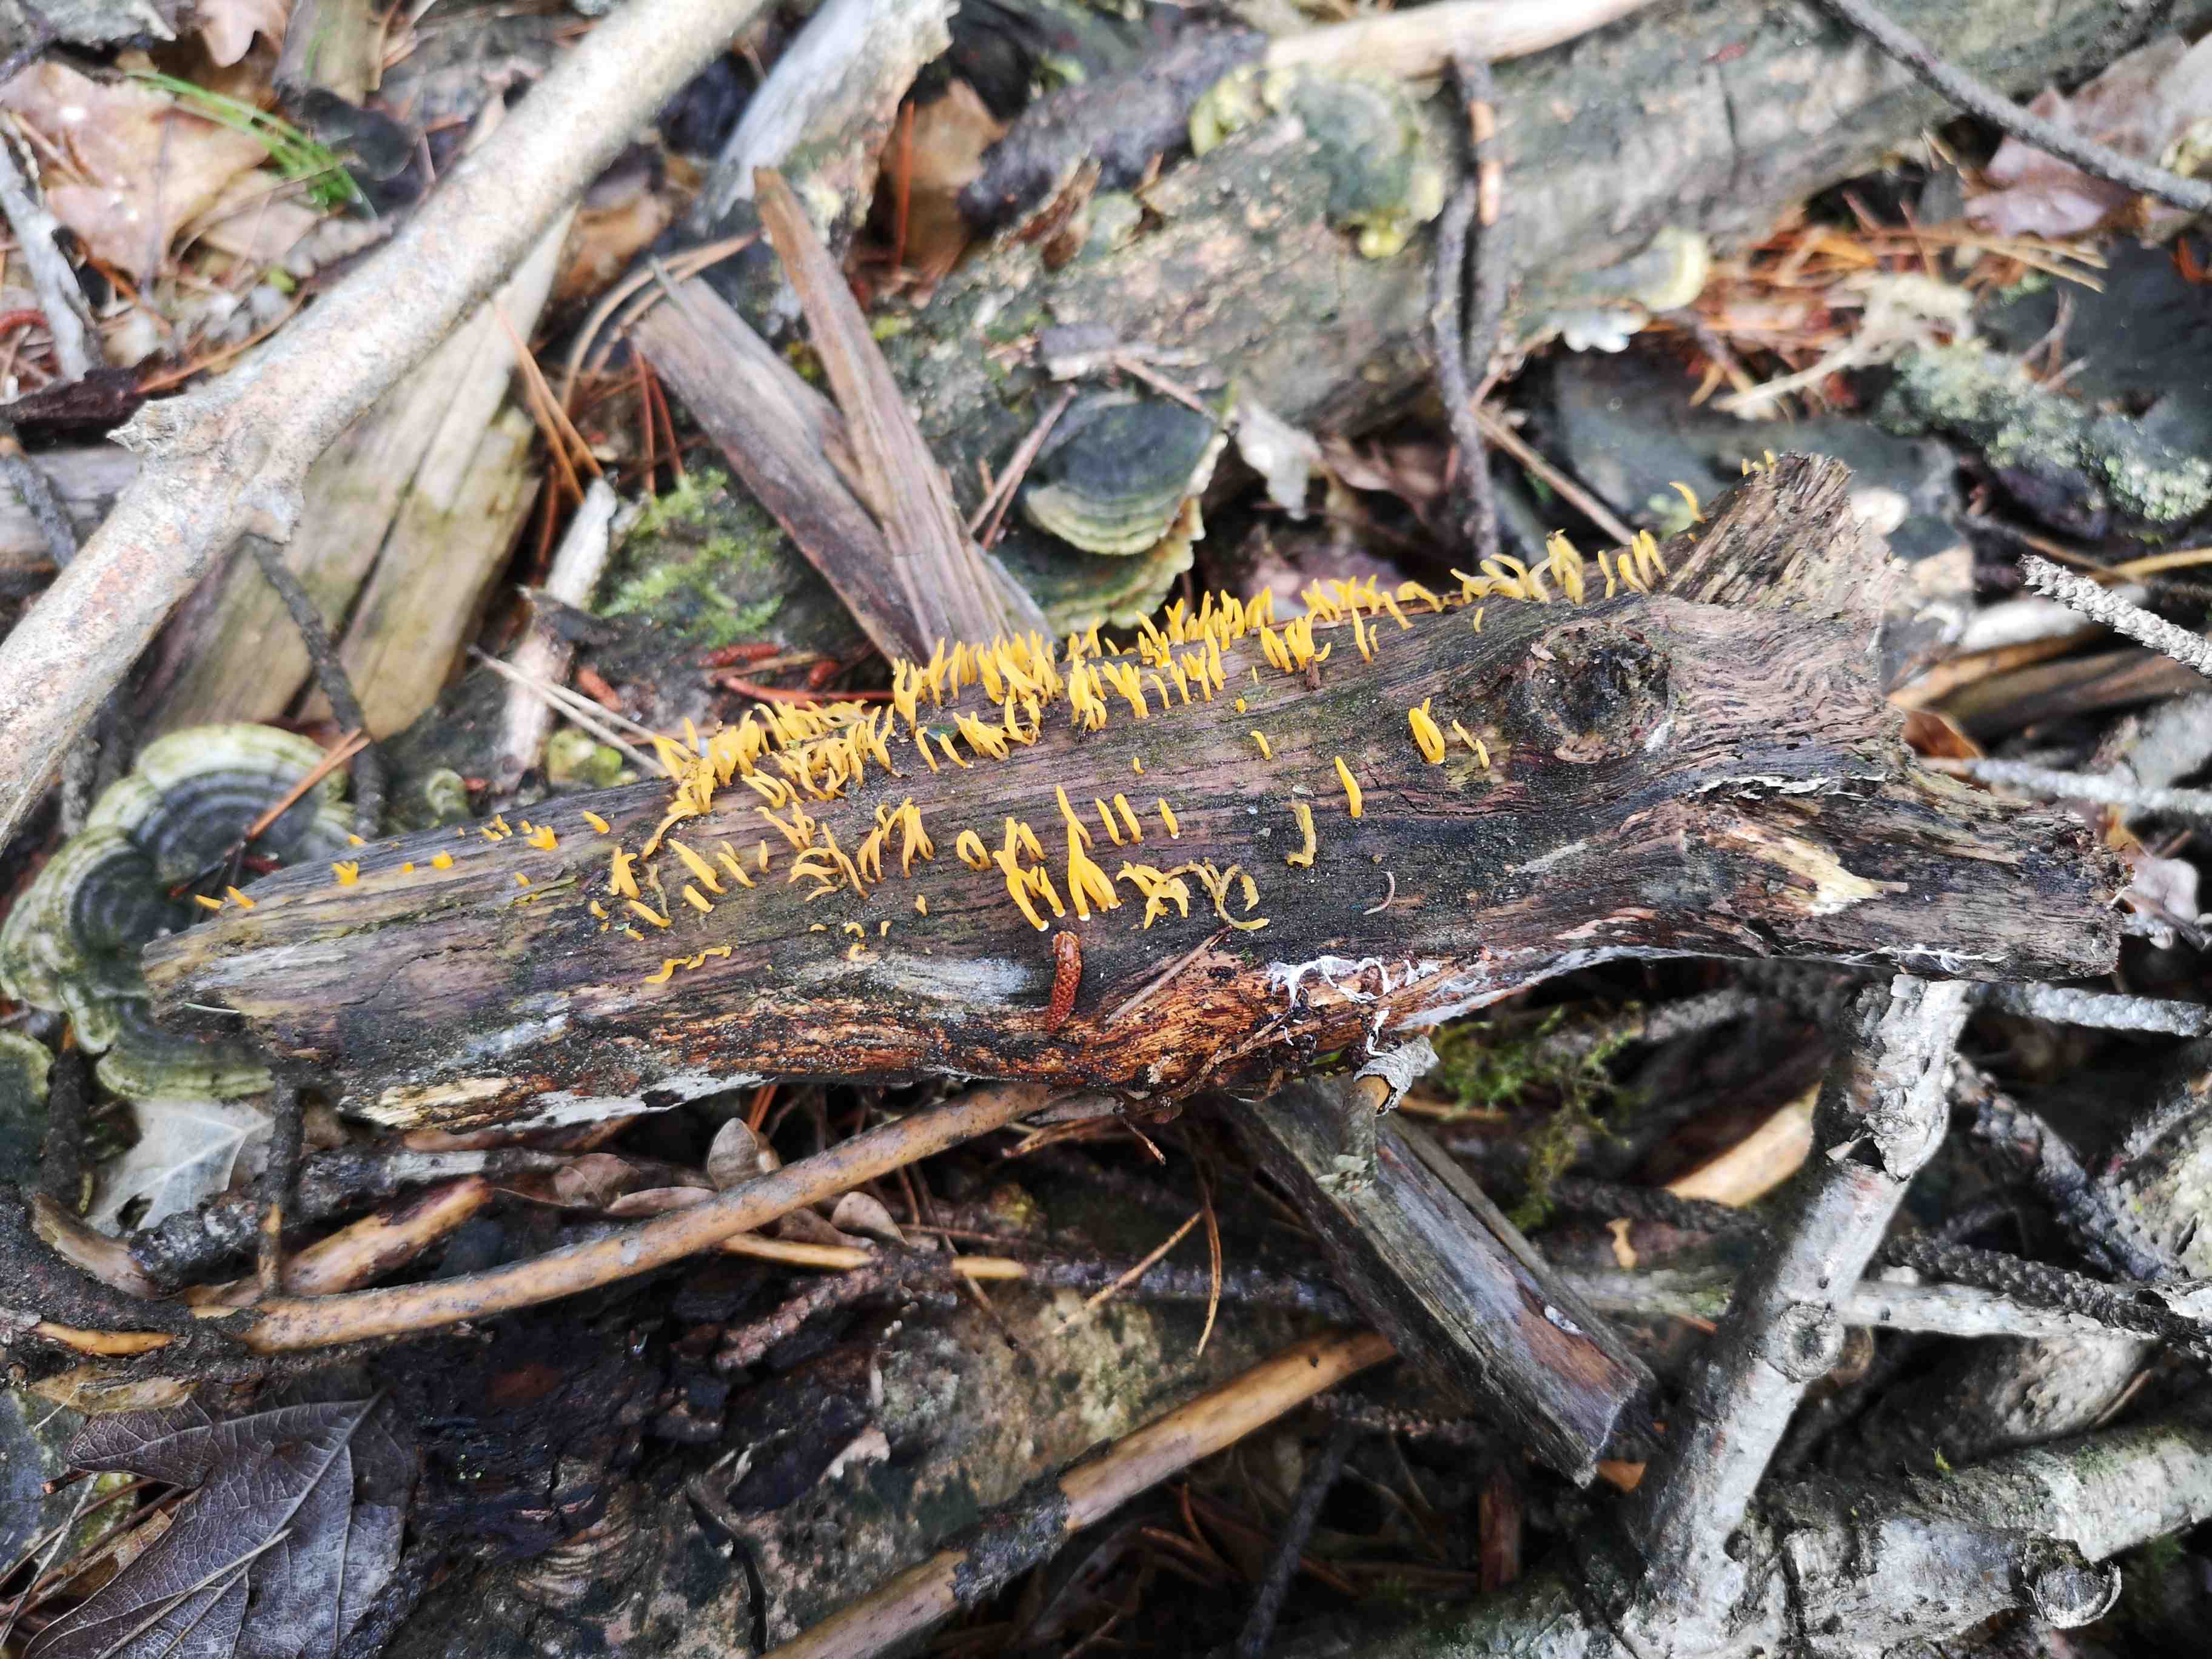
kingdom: Fungi
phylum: Basidiomycota
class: Dacrymycetes
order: Dacrymycetales
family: Dacrymycetaceae
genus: Calocera
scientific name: Calocera cornea
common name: liden guldgaffel
